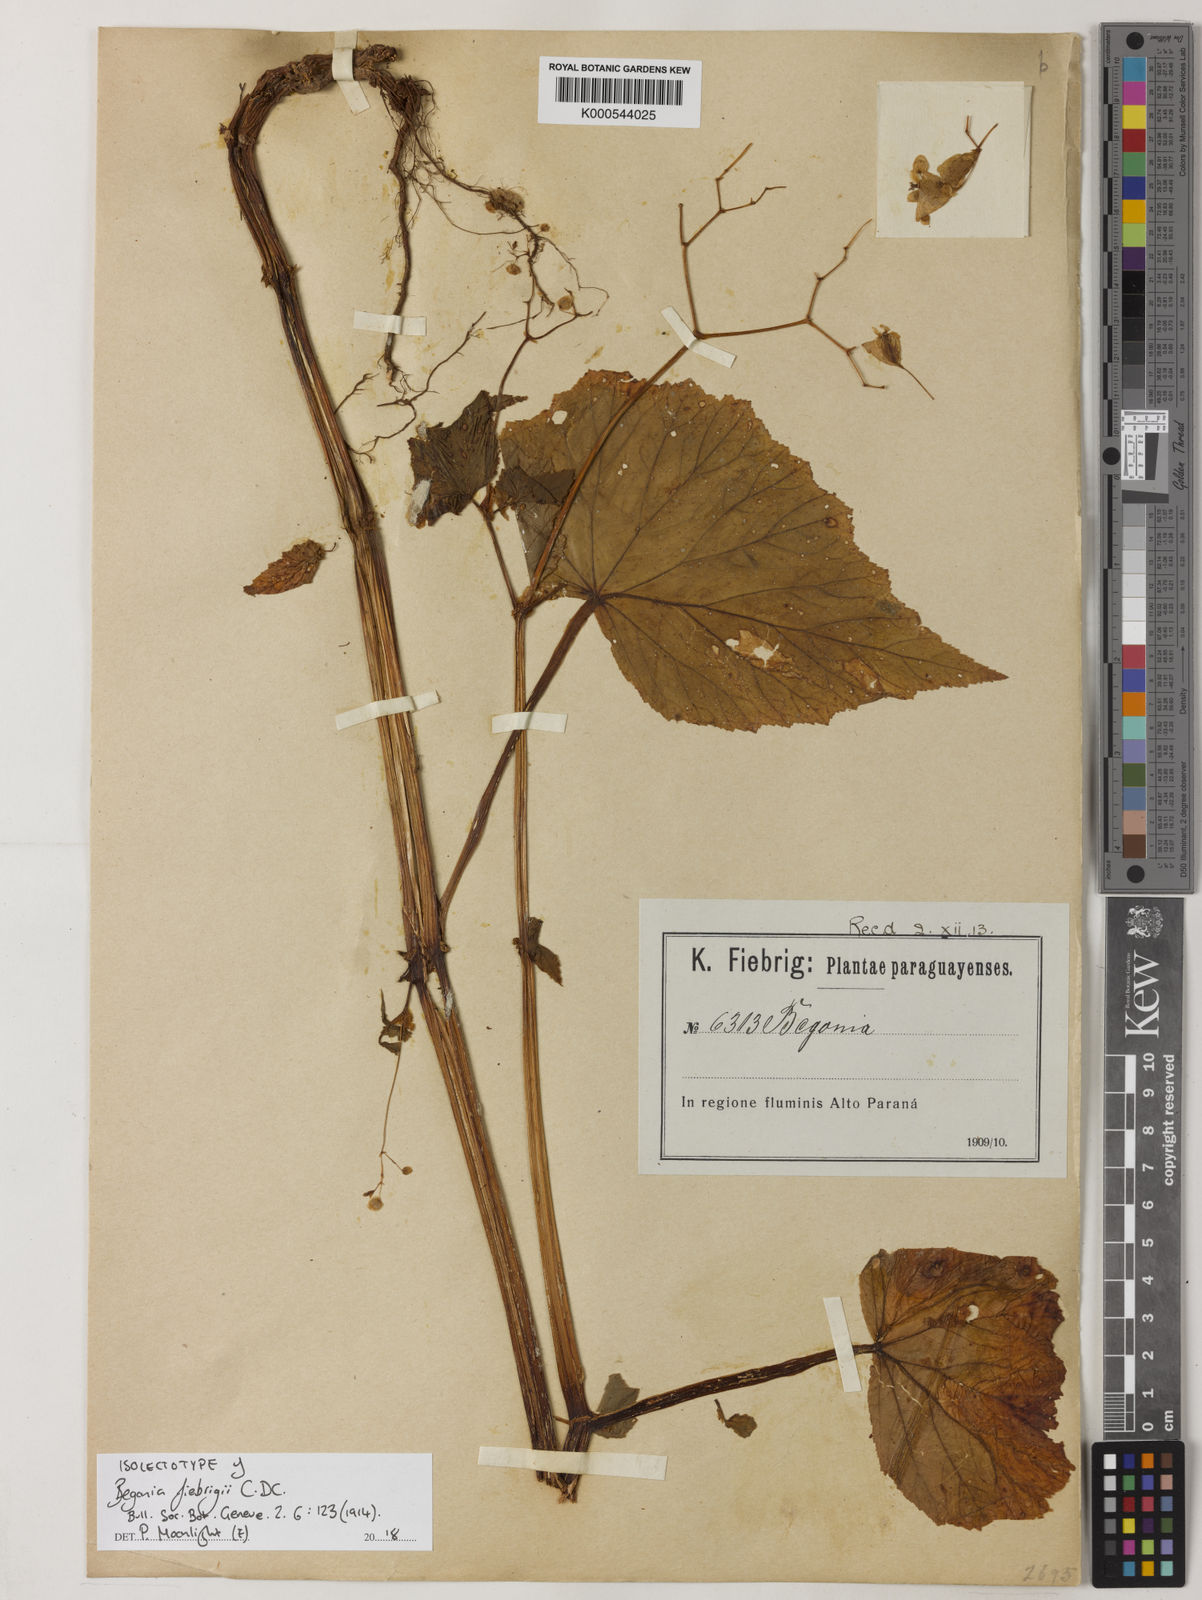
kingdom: Plantae
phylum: Tracheophyta
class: Magnoliopsida
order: Cucurbitales
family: Begoniaceae
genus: Begonia
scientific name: Begonia fiebrigii
